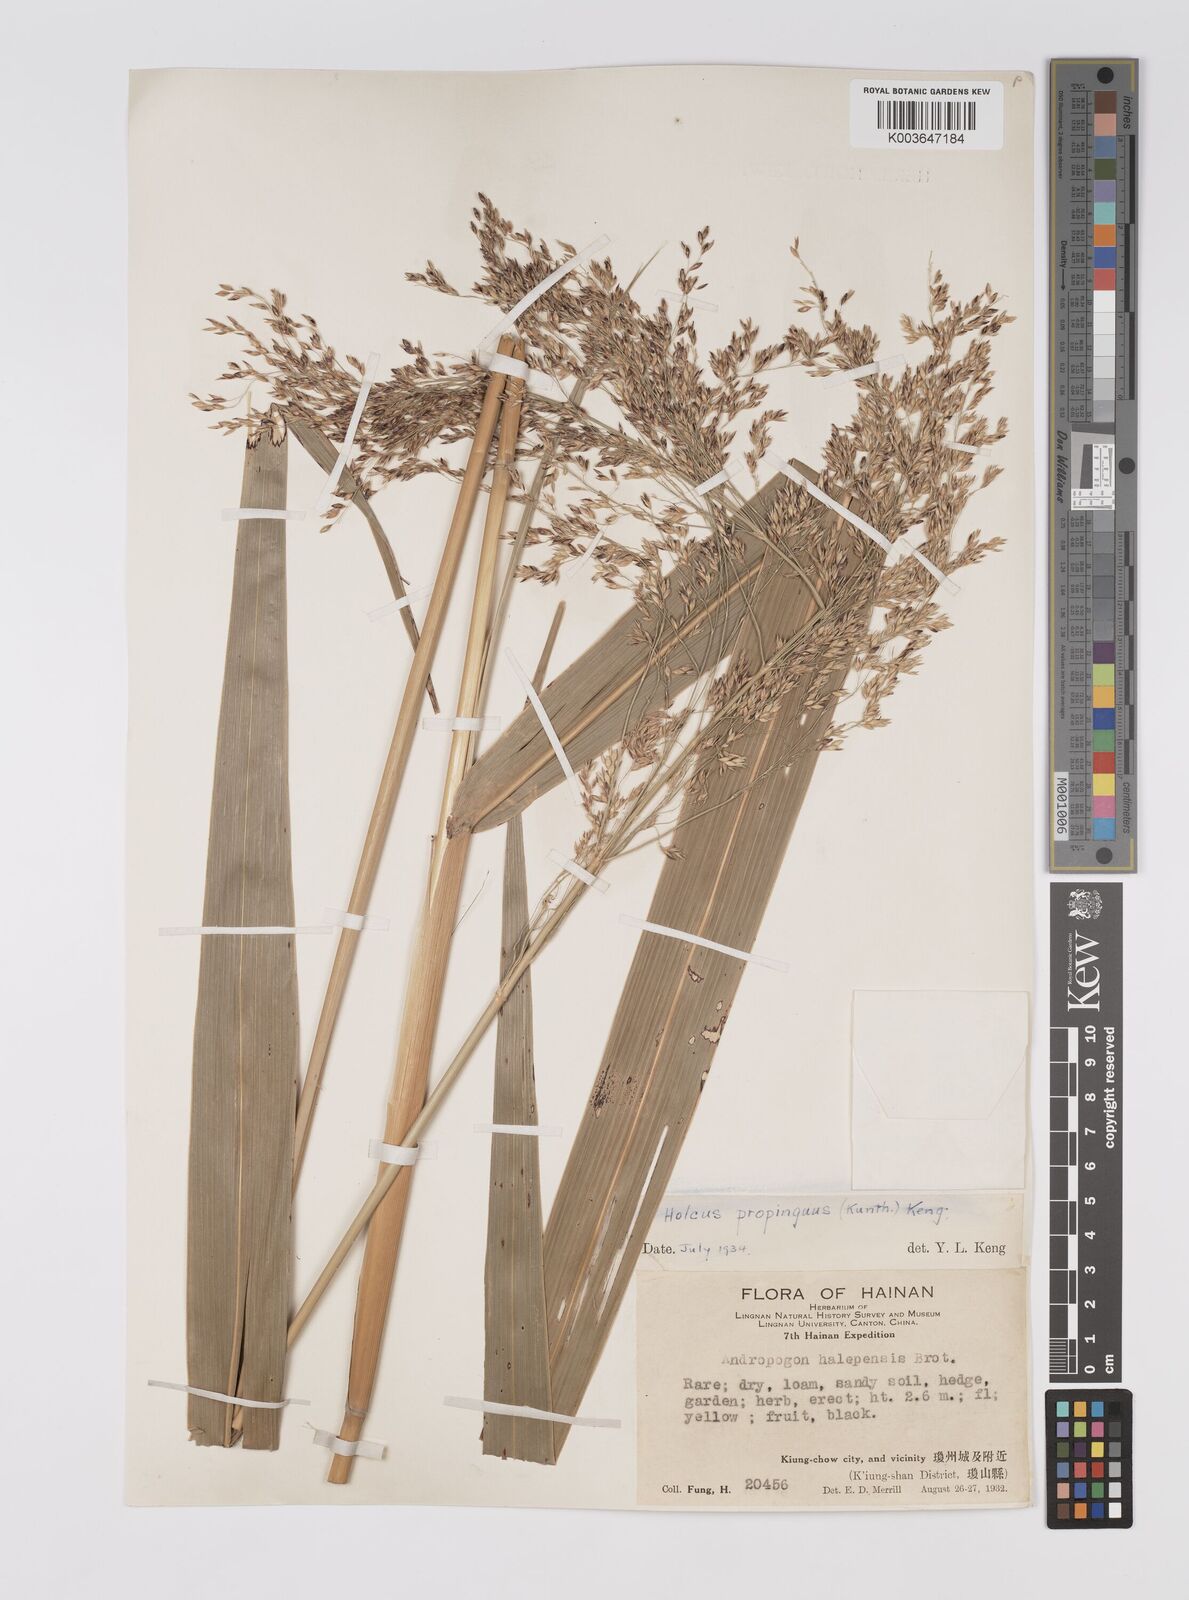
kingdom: Plantae
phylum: Tracheophyta
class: Liliopsida
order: Poales
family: Poaceae
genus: Sorghum
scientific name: Sorghum propinquum
